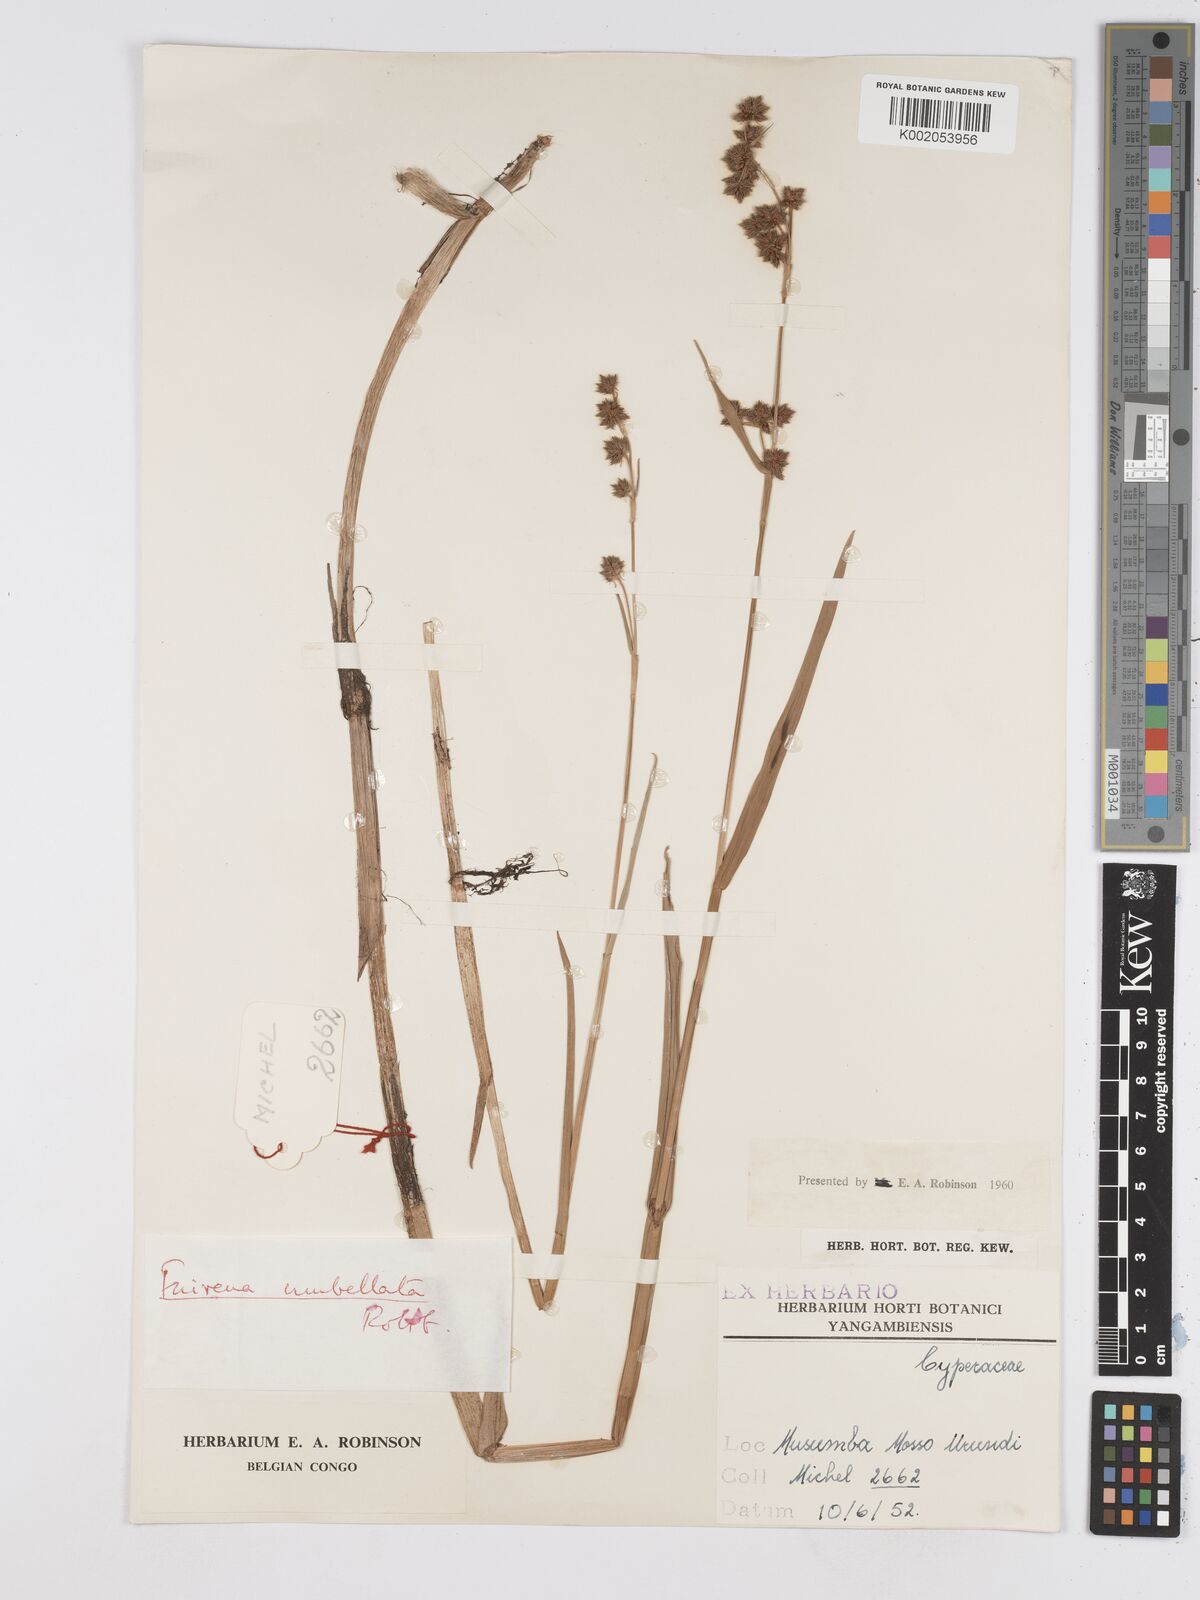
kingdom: Plantae
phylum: Tracheophyta
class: Liliopsida
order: Poales
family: Cyperaceae
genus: Fuirena
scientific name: Fuirena umbellata
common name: Yefen
